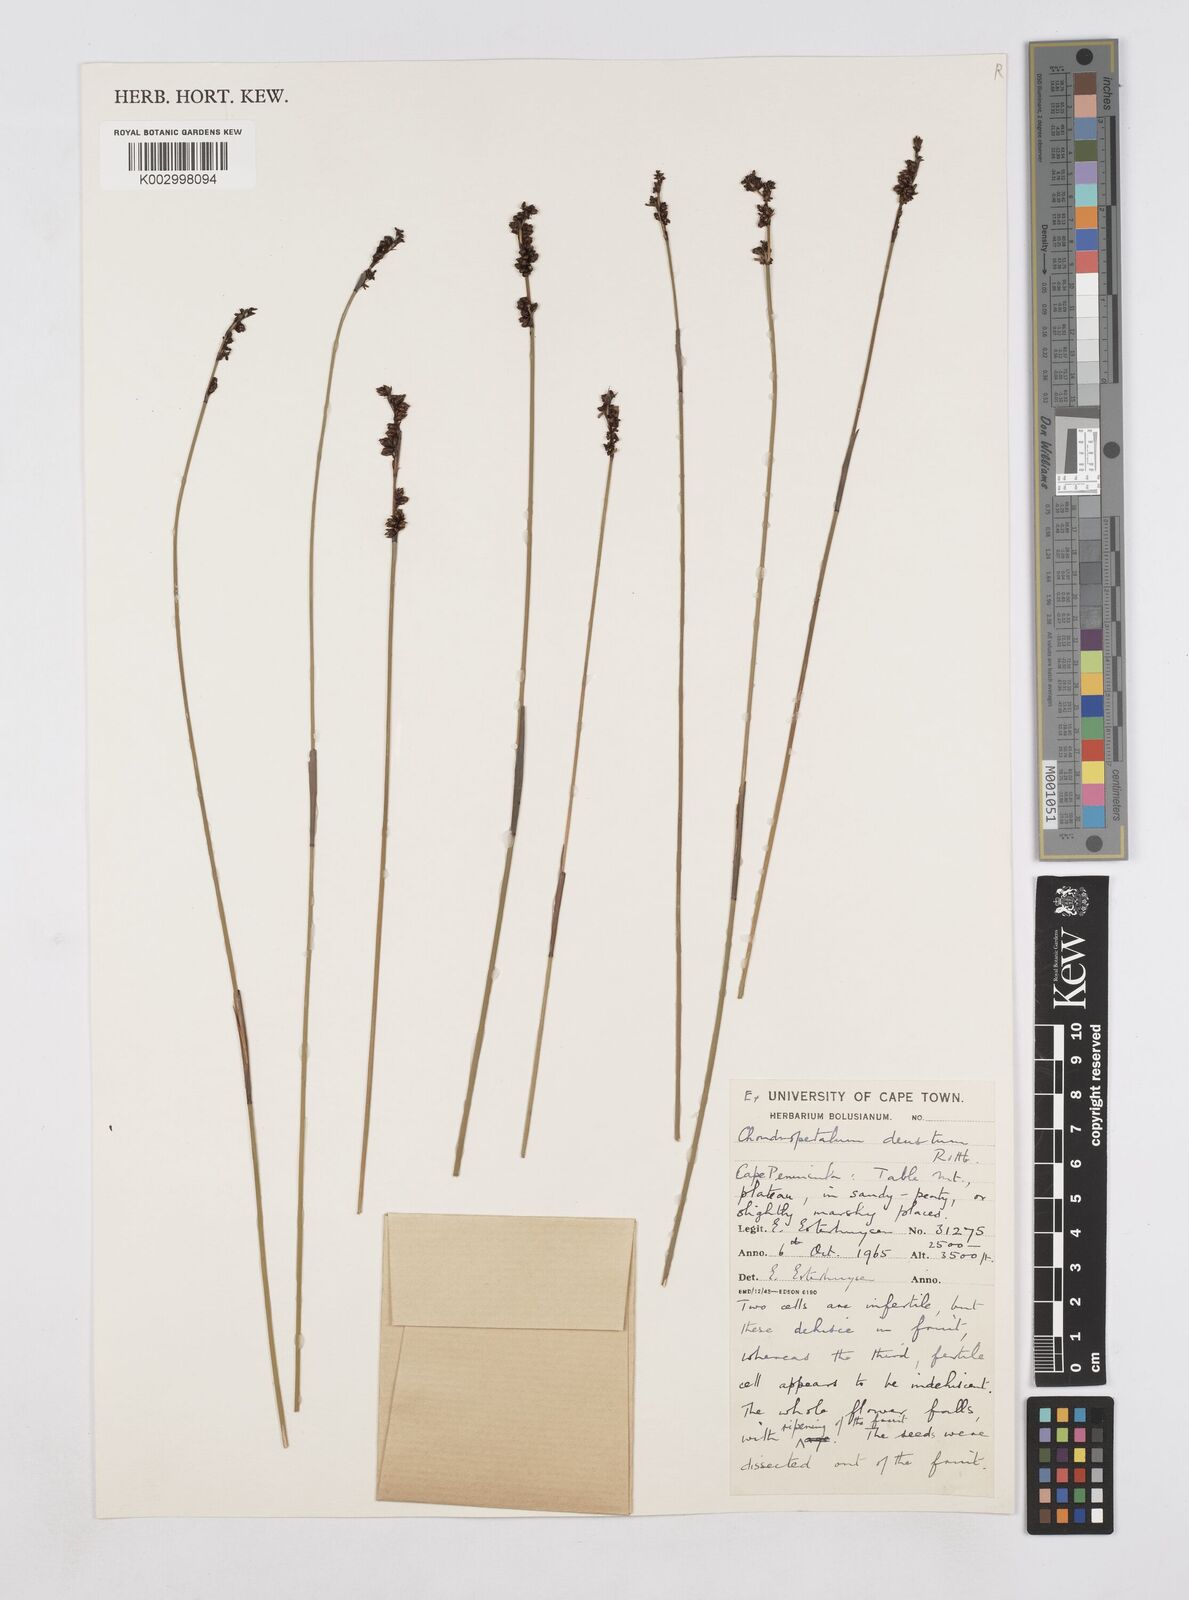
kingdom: Plantae
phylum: Tracheophyta
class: Liliopsida
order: Poales
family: Restionaceae
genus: Elegia
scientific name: Elegia deusta
